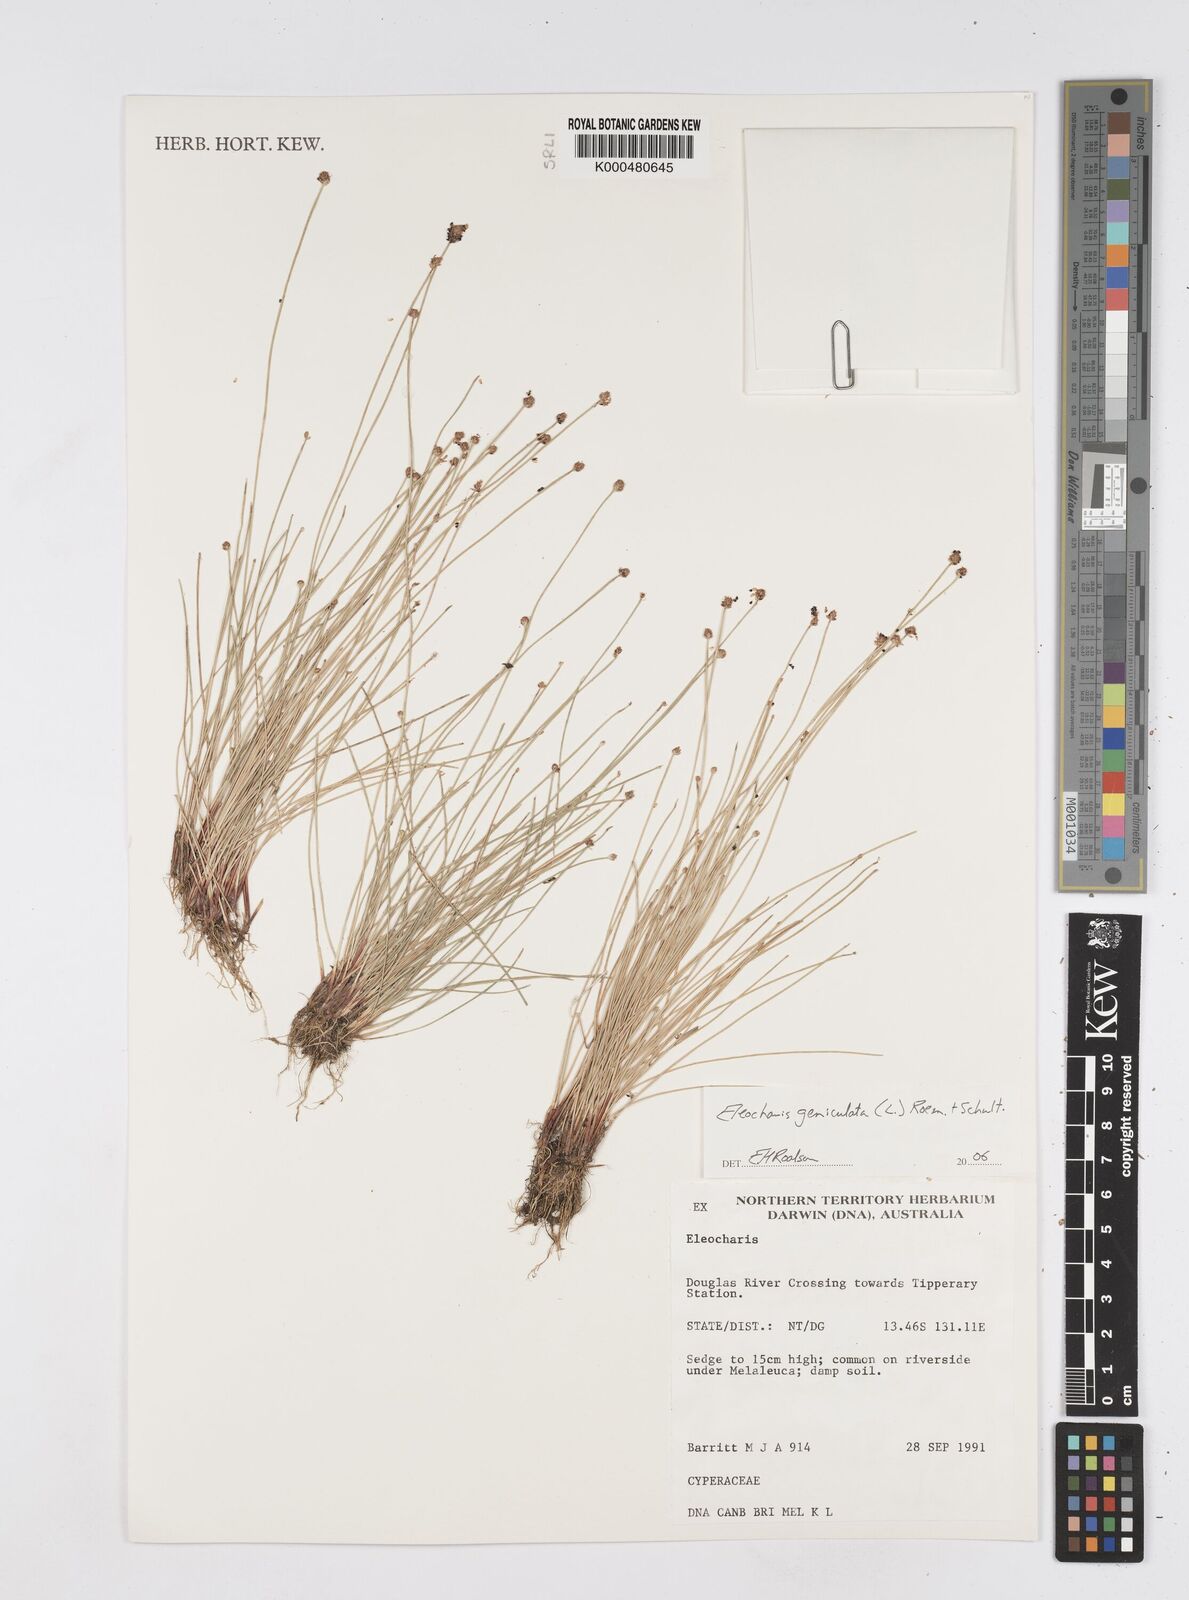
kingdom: Plantae
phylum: Tracheophyta
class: Liliopsida
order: Poales
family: Cyperaceae
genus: Eleocharis
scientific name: Eleocharis geniculata
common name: Canada spikesedge
